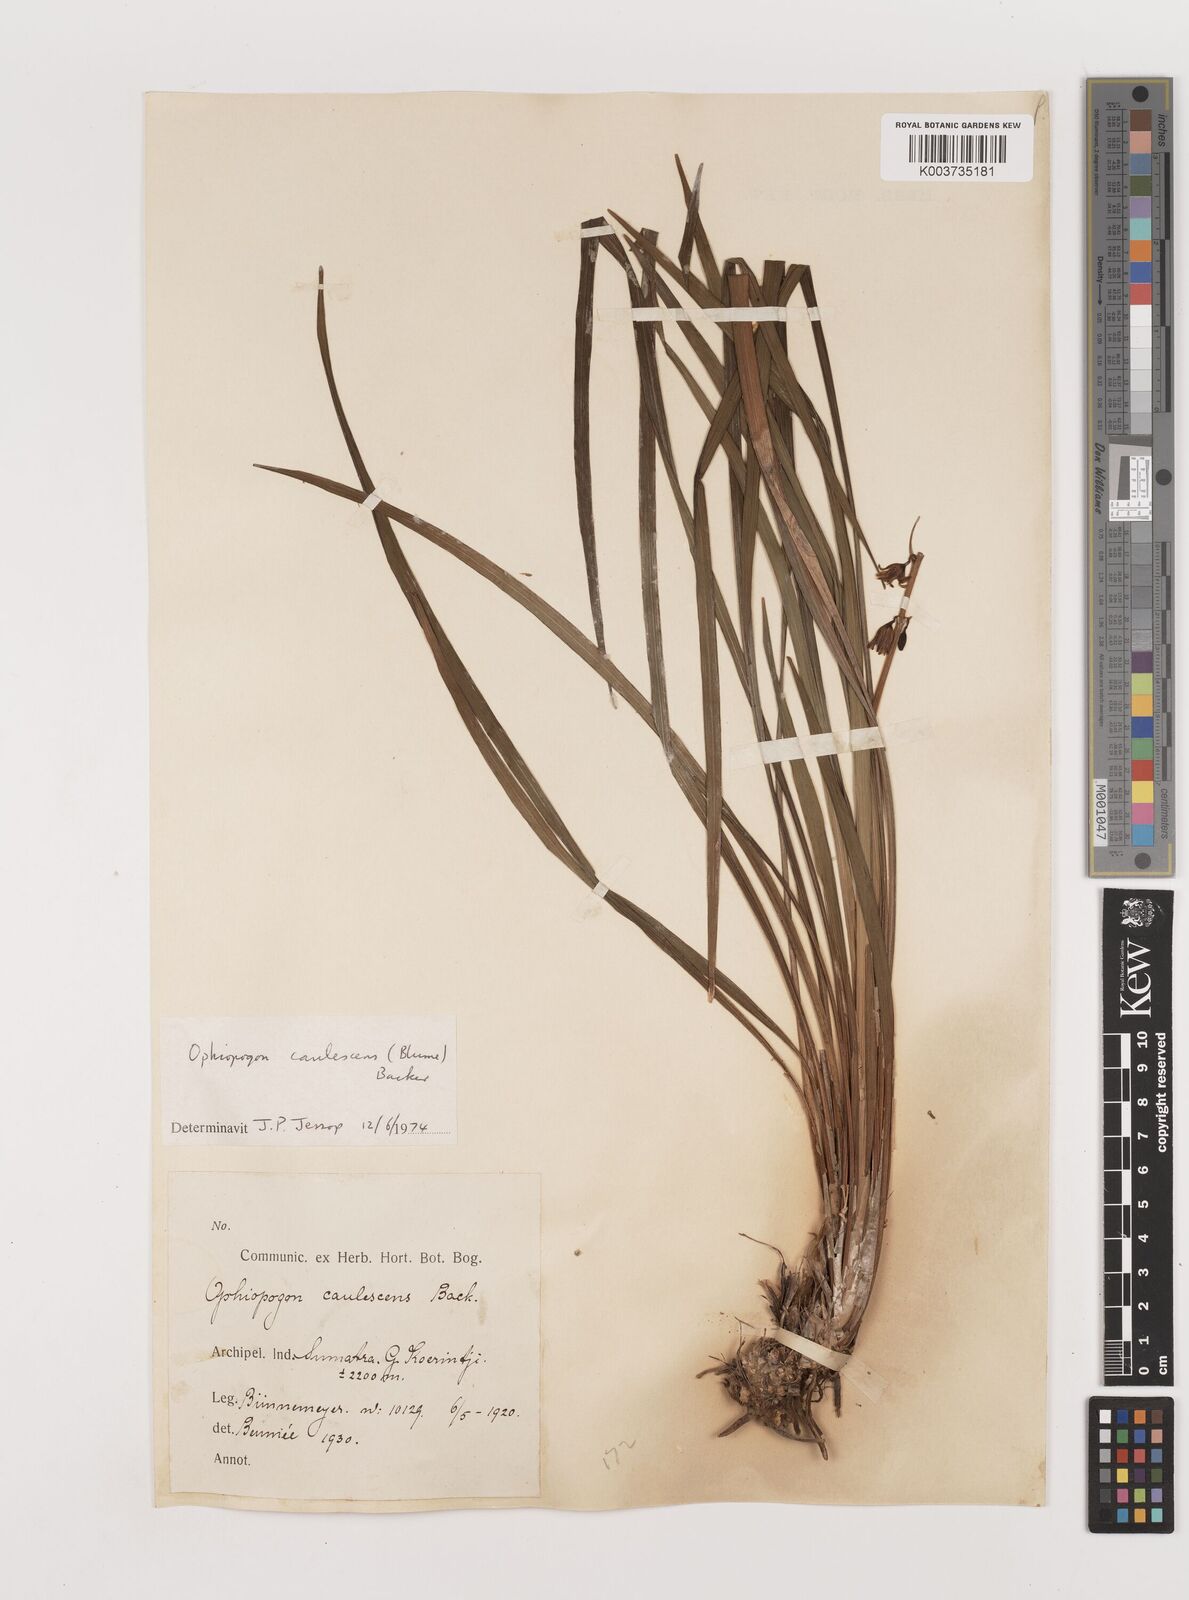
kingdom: Plantae
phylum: Tracheophyta
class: Liliopsida
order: Asparagales
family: Asparagaceae
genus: Ophiopogon
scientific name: Ophiopogon caulescens
